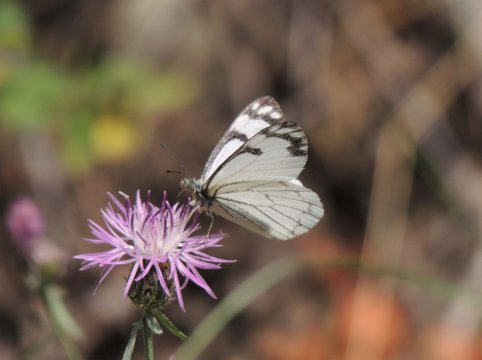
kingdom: Animalia
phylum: Arthropoda
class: Insecta
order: Lepidoptera
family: Pieridae
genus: Neophasia
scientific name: Neophasia menapia
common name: Pine White
